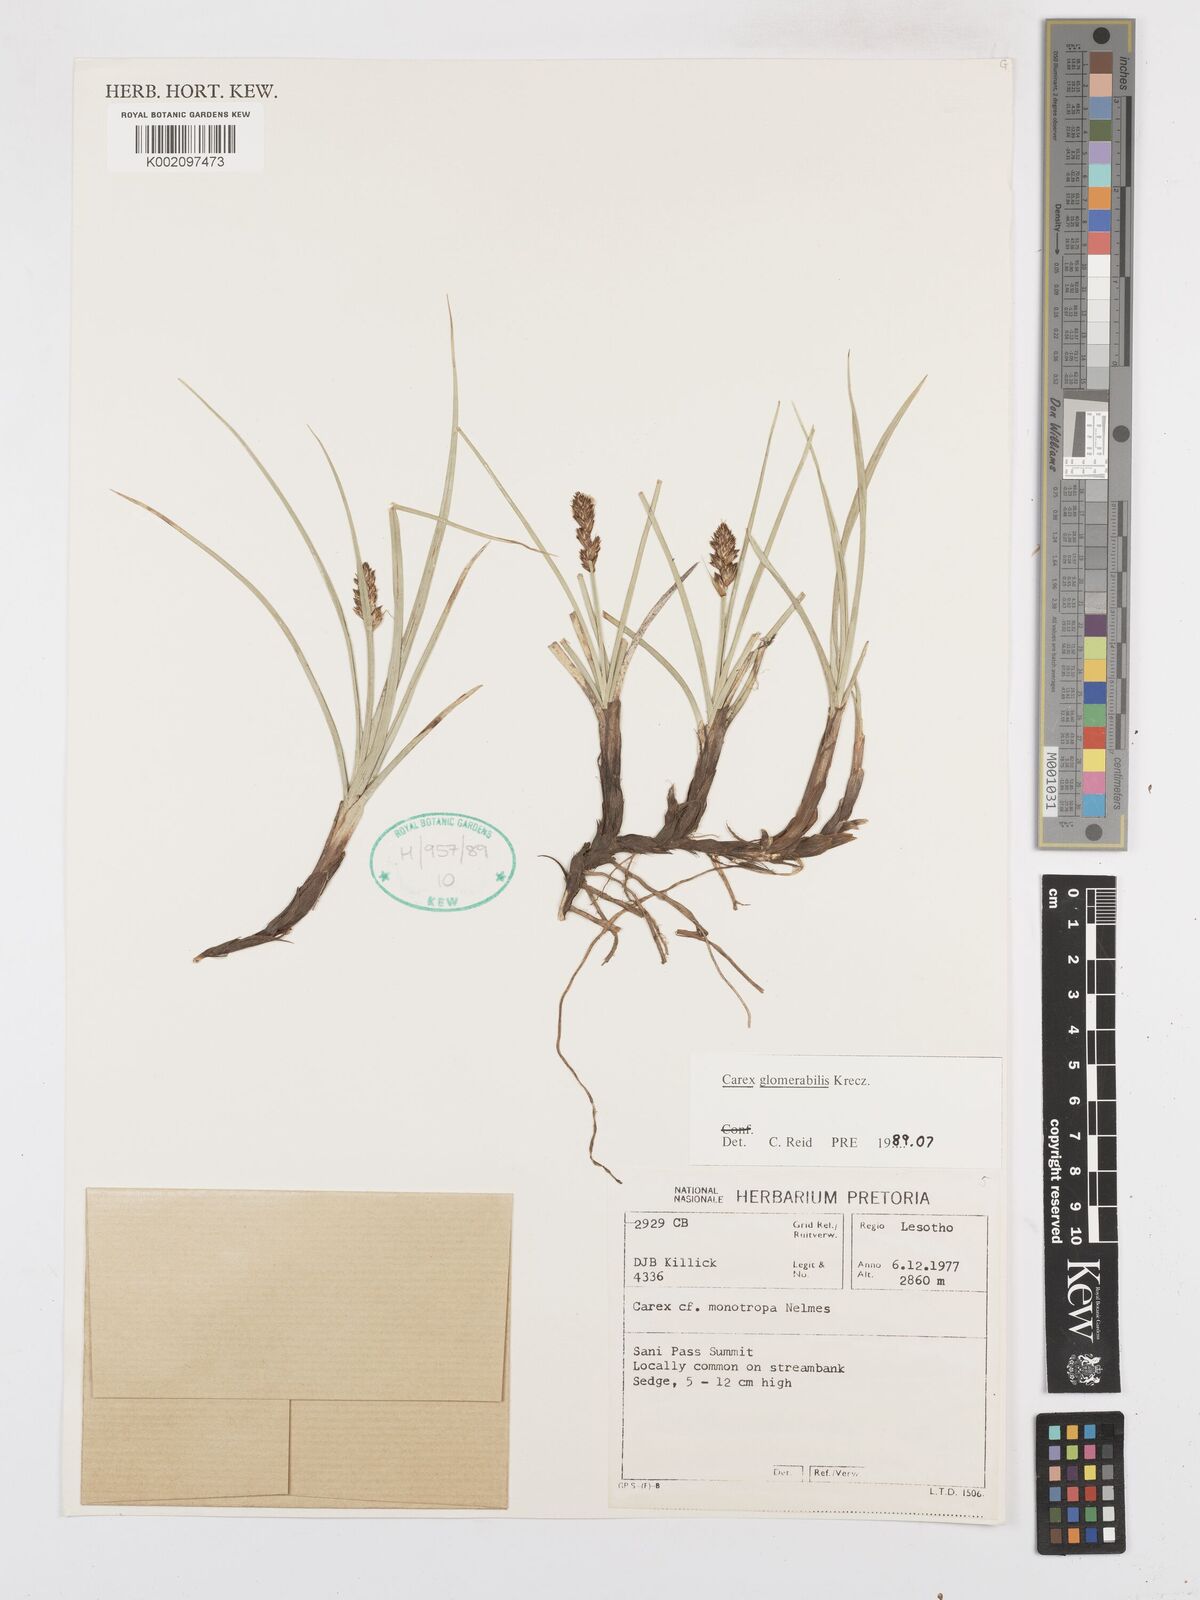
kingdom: Plantae
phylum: Tracheophyta
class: Liliopsida
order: Poales
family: Cyperaceae
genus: Carex
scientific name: Carex glomerata
